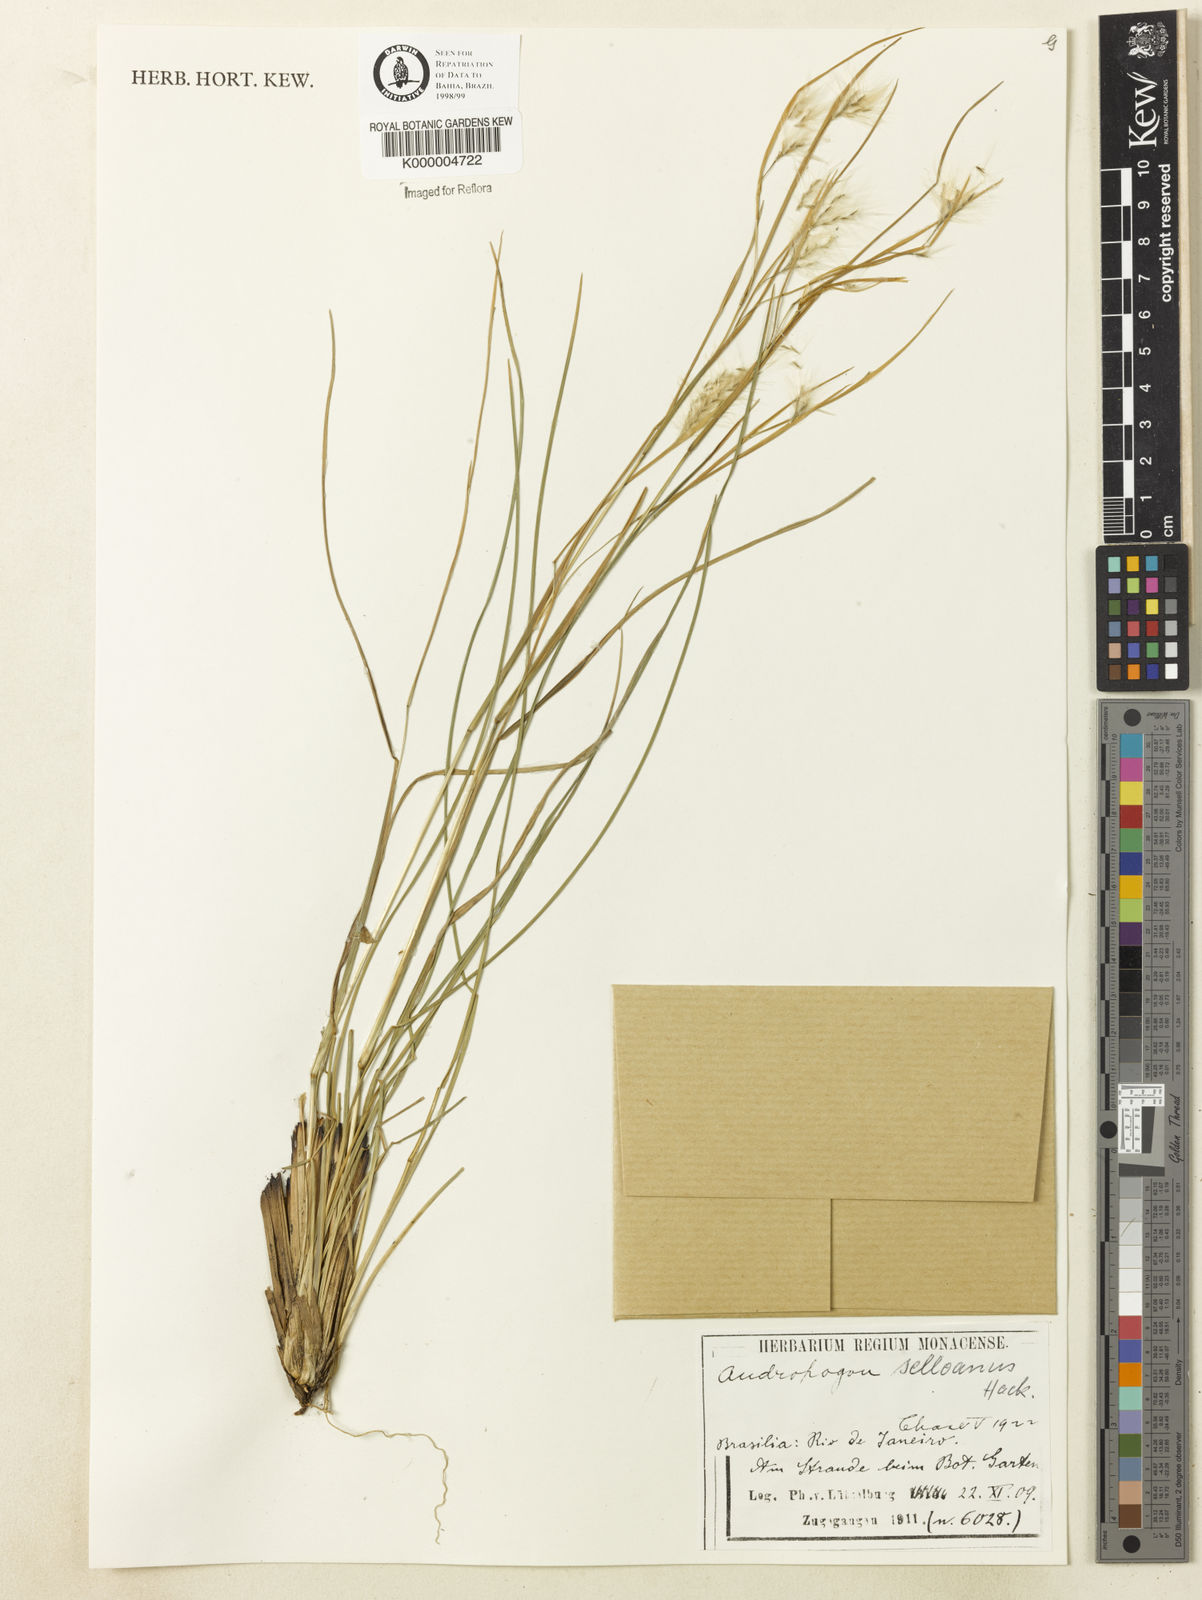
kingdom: Plantae
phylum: Tracheophyta
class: Liliopsida
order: Poales
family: Poaceae
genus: Andropogon
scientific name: Andropogon leucostachyus
